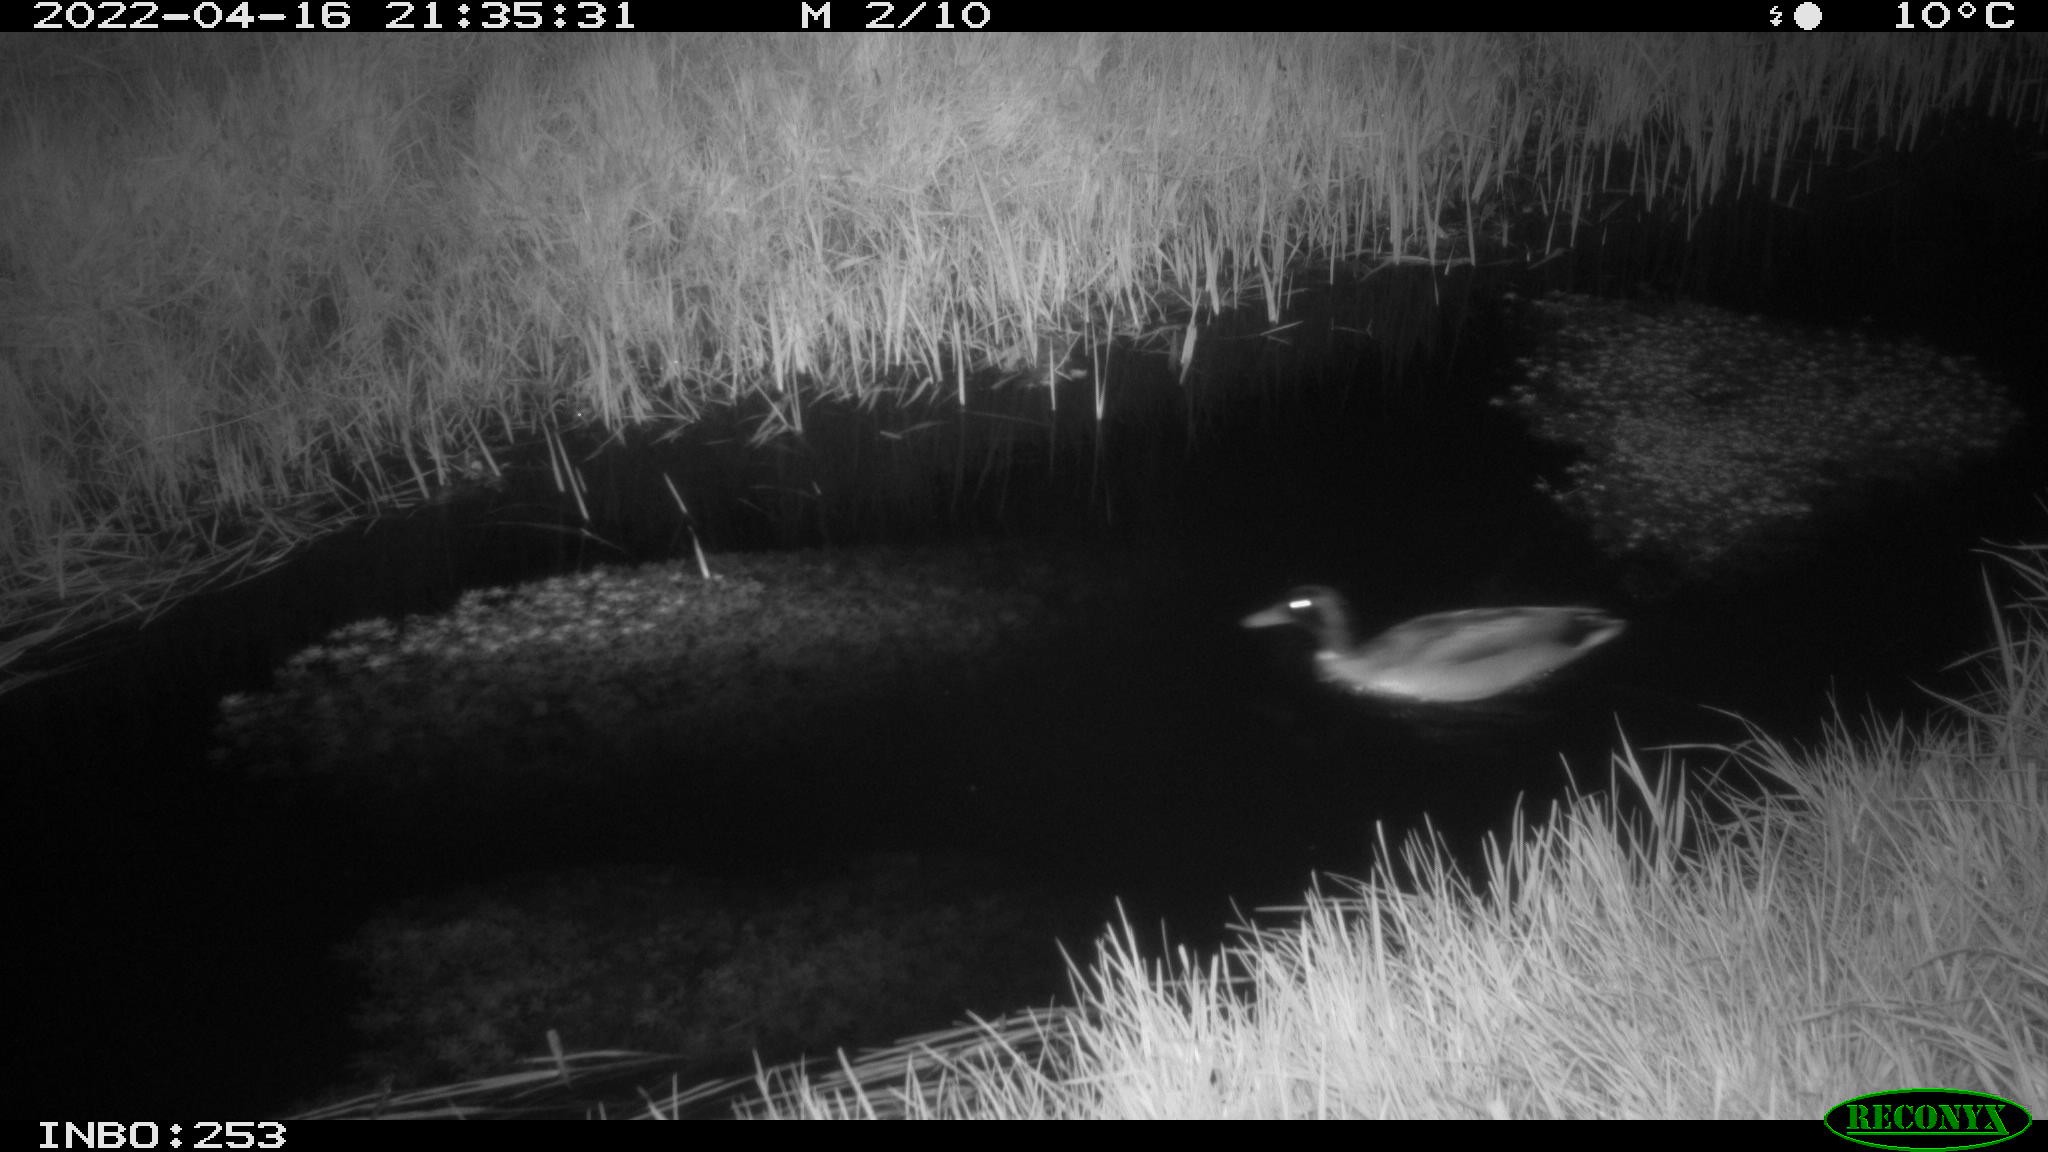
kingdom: Animalia
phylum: Chordata
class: Aves
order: Anseriformes
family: Anatidae
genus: Anas
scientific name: Anas platyrhynchos
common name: Mallard
